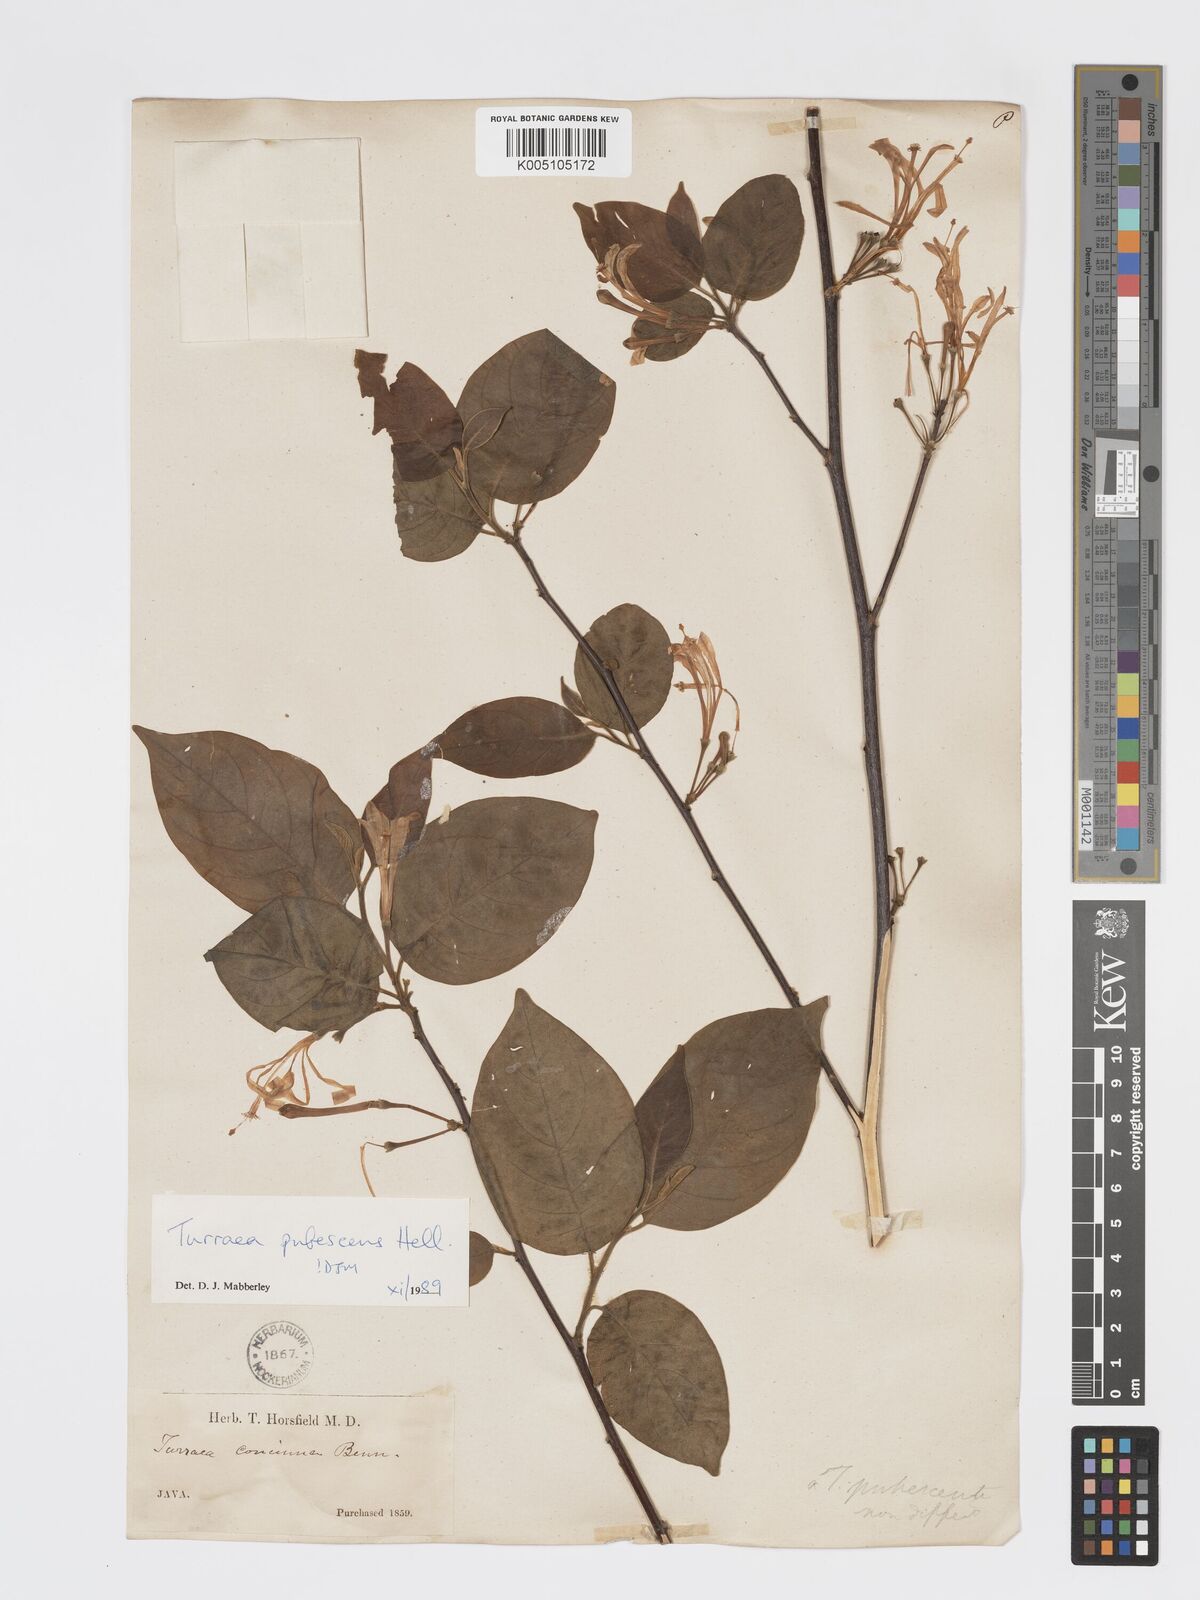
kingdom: Plantae
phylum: Tracheophyta
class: Magnoliopsida
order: Sapindales
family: Meliaceae
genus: Turraea
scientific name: Turraea
